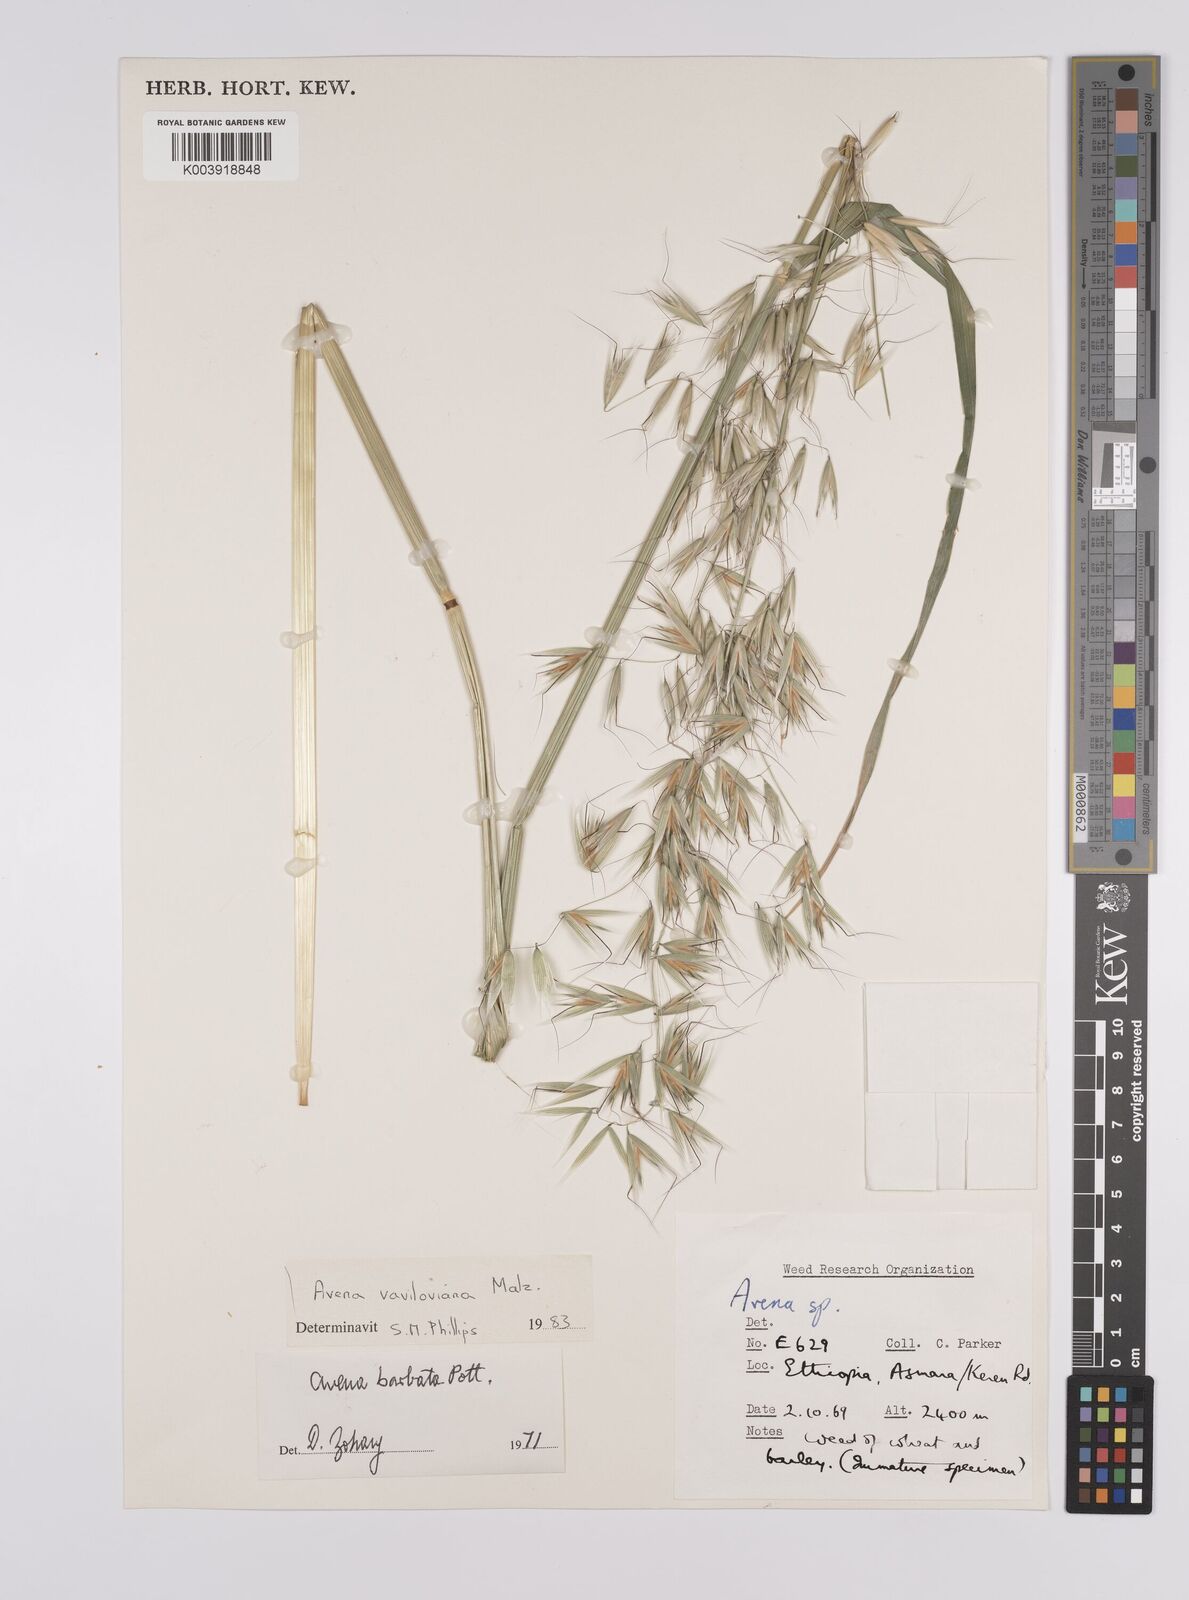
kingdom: Plantae
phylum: Tracheophyta
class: Liliopsida
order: Poales
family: Poaceae
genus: Avena
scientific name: Avena vaviloviana
